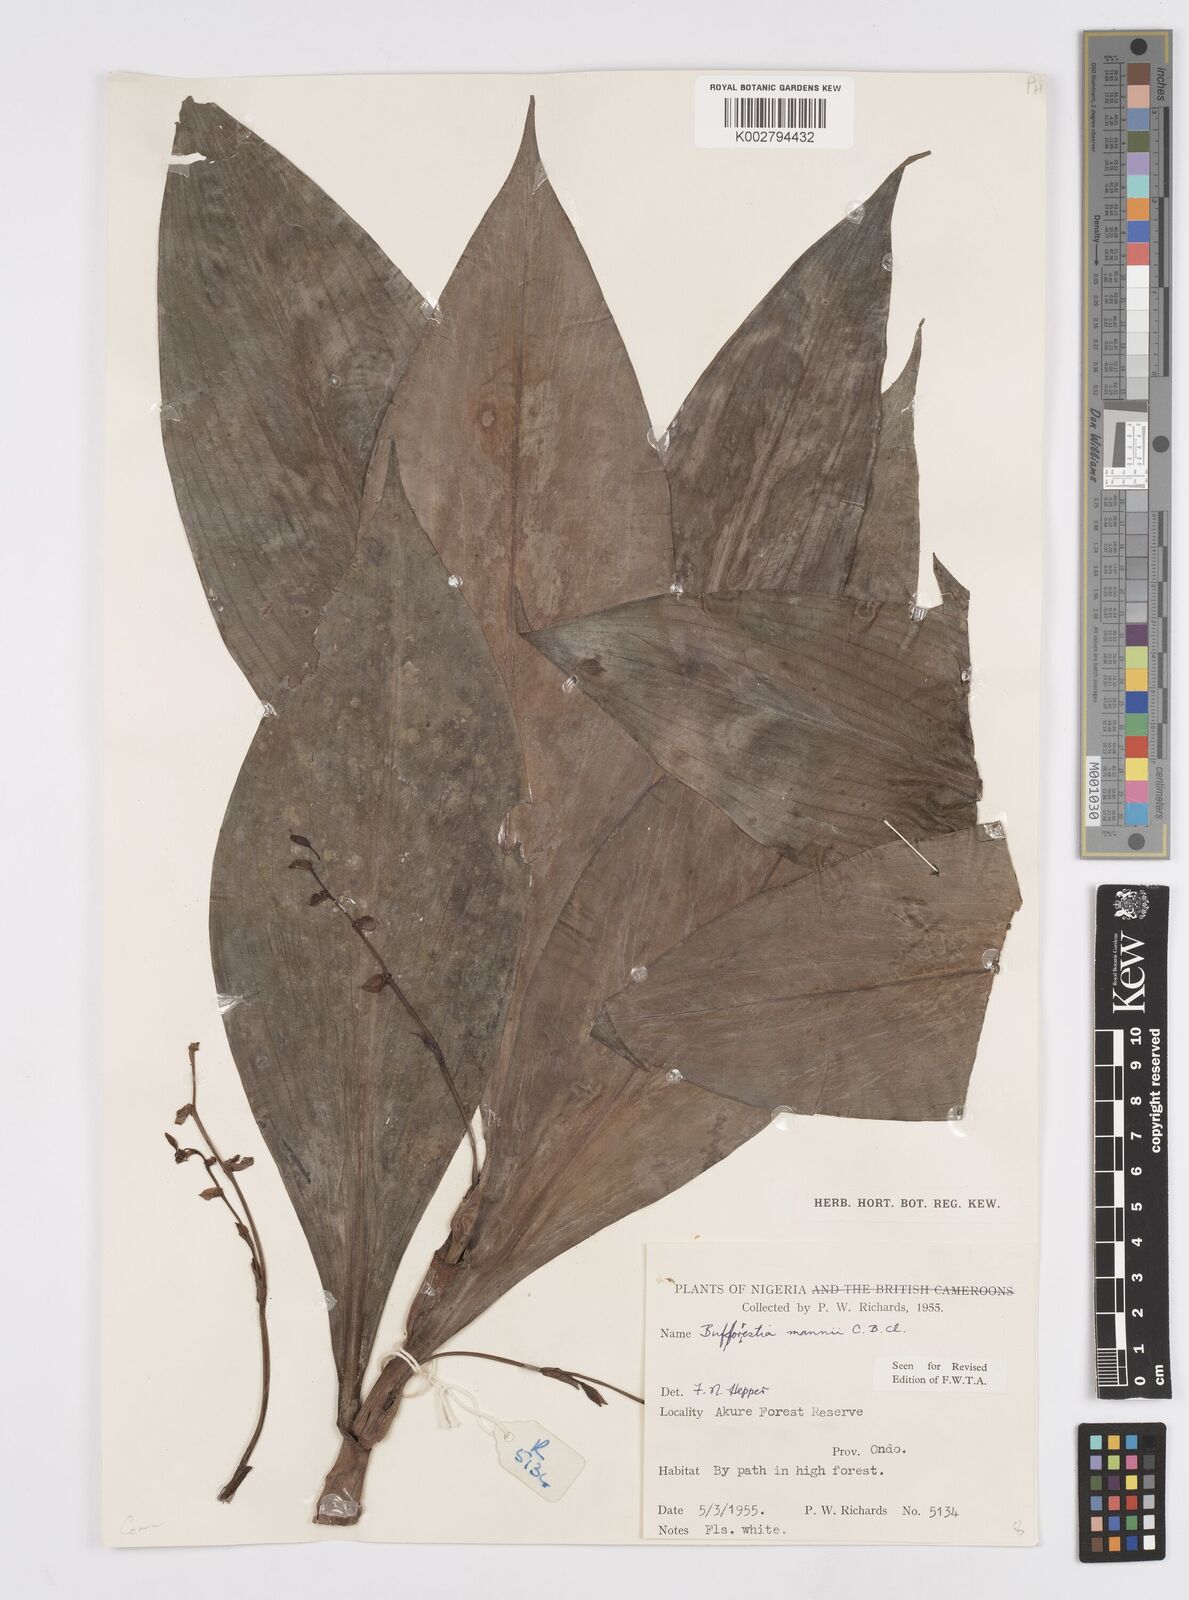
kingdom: Plantae
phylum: Tracheophyta
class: Liliopsida
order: Commelinales
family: Commelinaceae
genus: Buforrestia
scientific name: Buforrestia mannii
